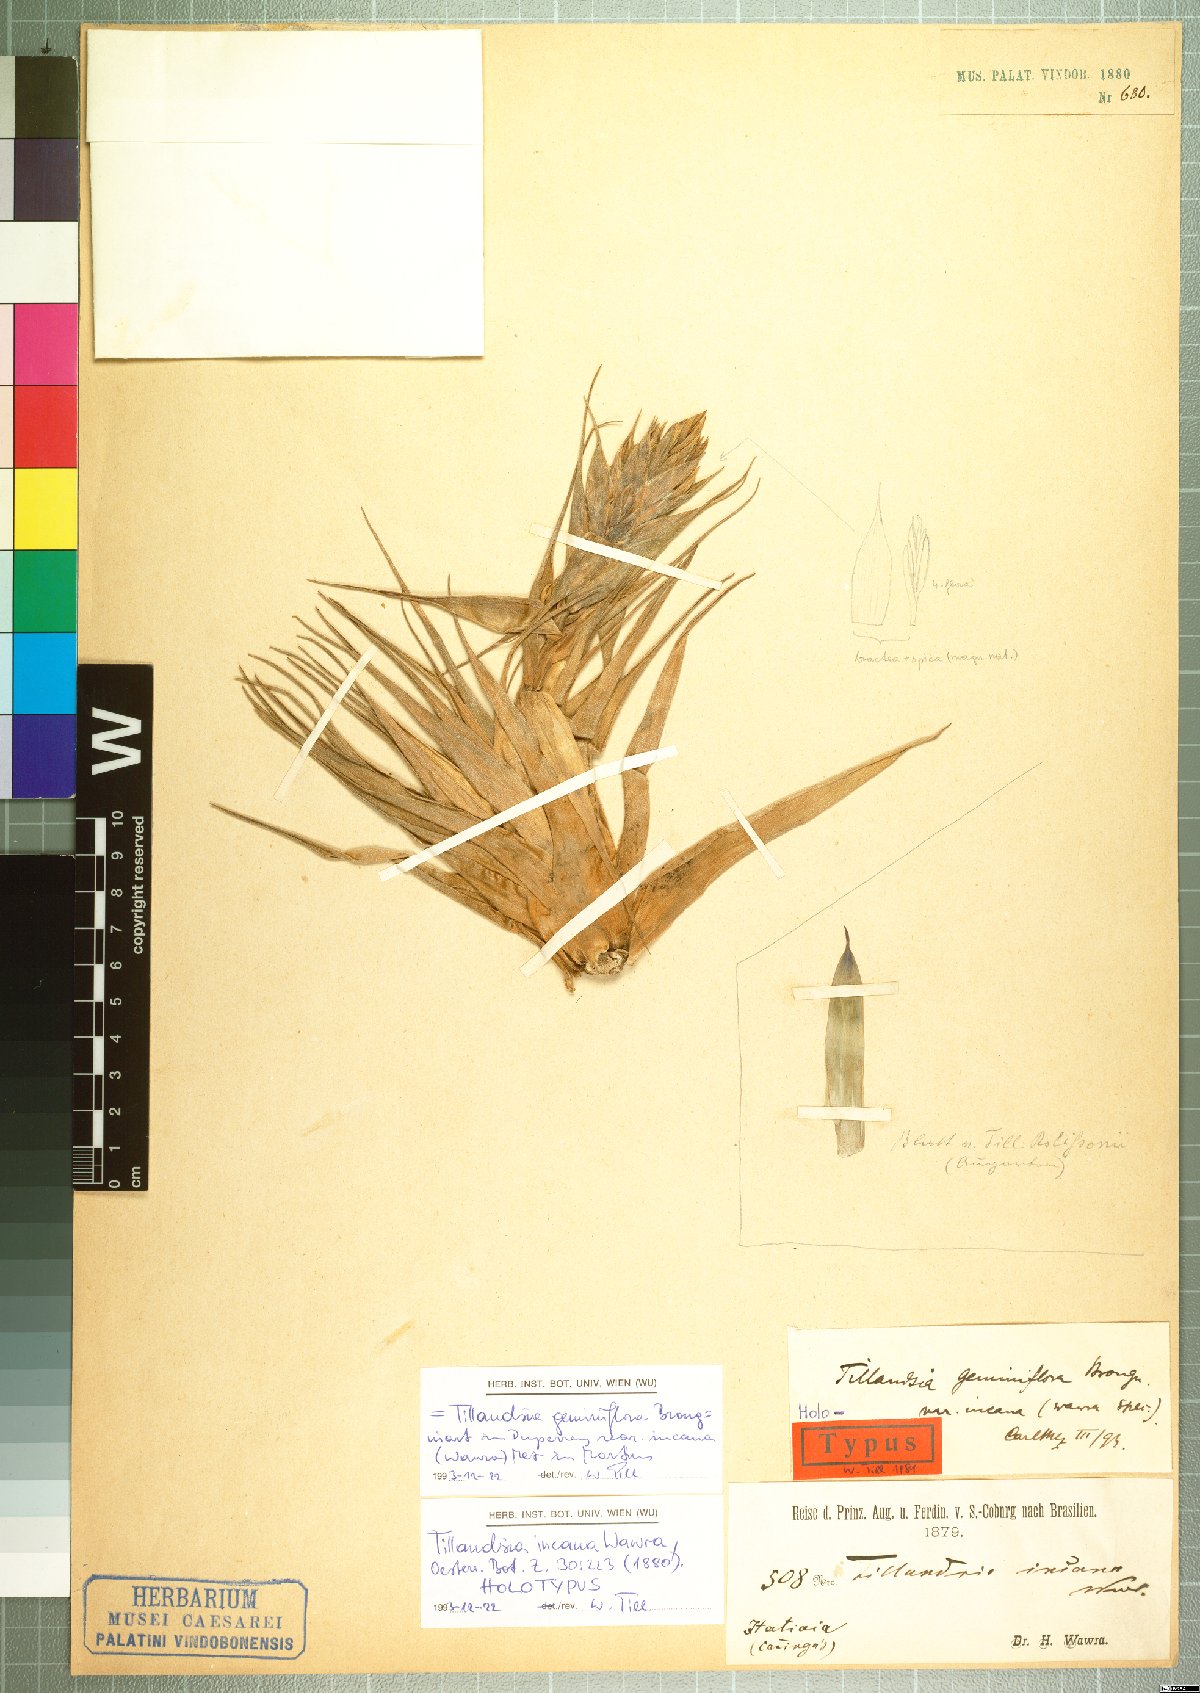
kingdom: Plantae
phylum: Tracheophyta
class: Liliopsida
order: Poales
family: Bromeliaceae
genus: Tillandsia
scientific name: Tillandsia geminiflora
